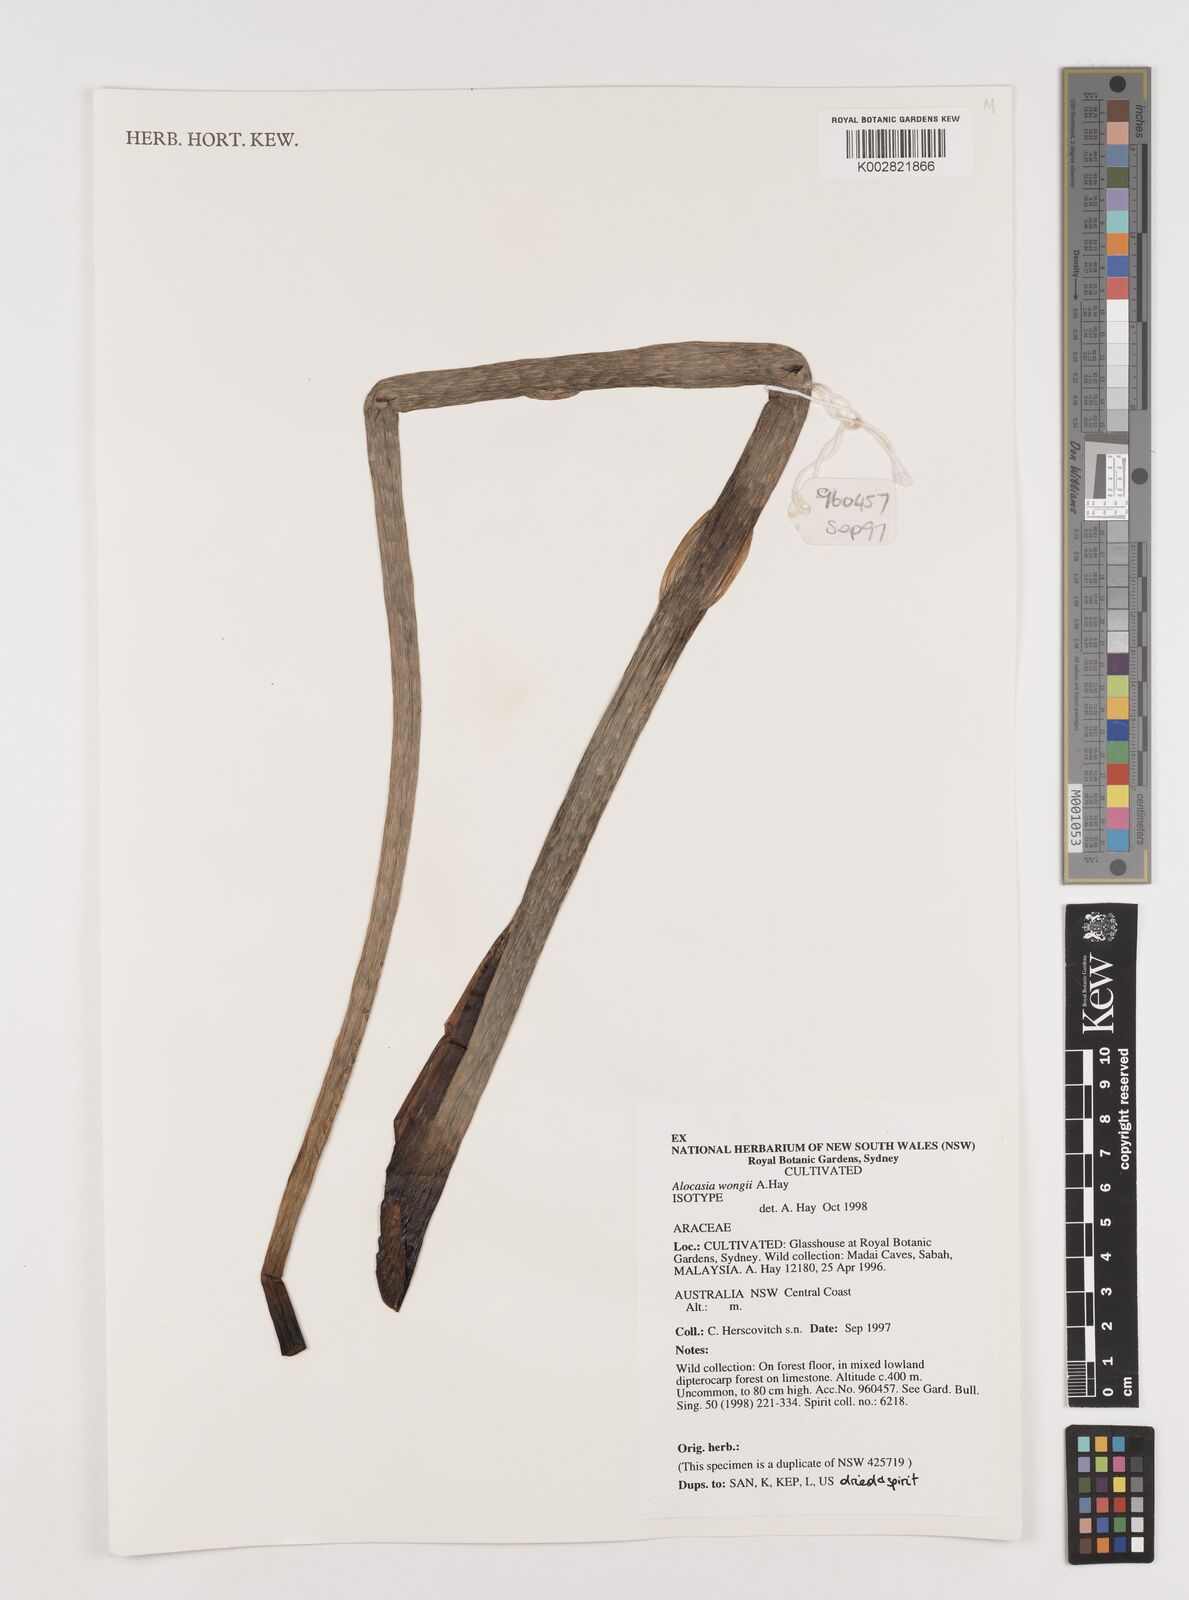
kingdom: Plantae
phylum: Tracheophyta
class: Liliopsida
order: Alismatales
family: Araceae
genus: Alocasia
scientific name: Alocasia wongii
